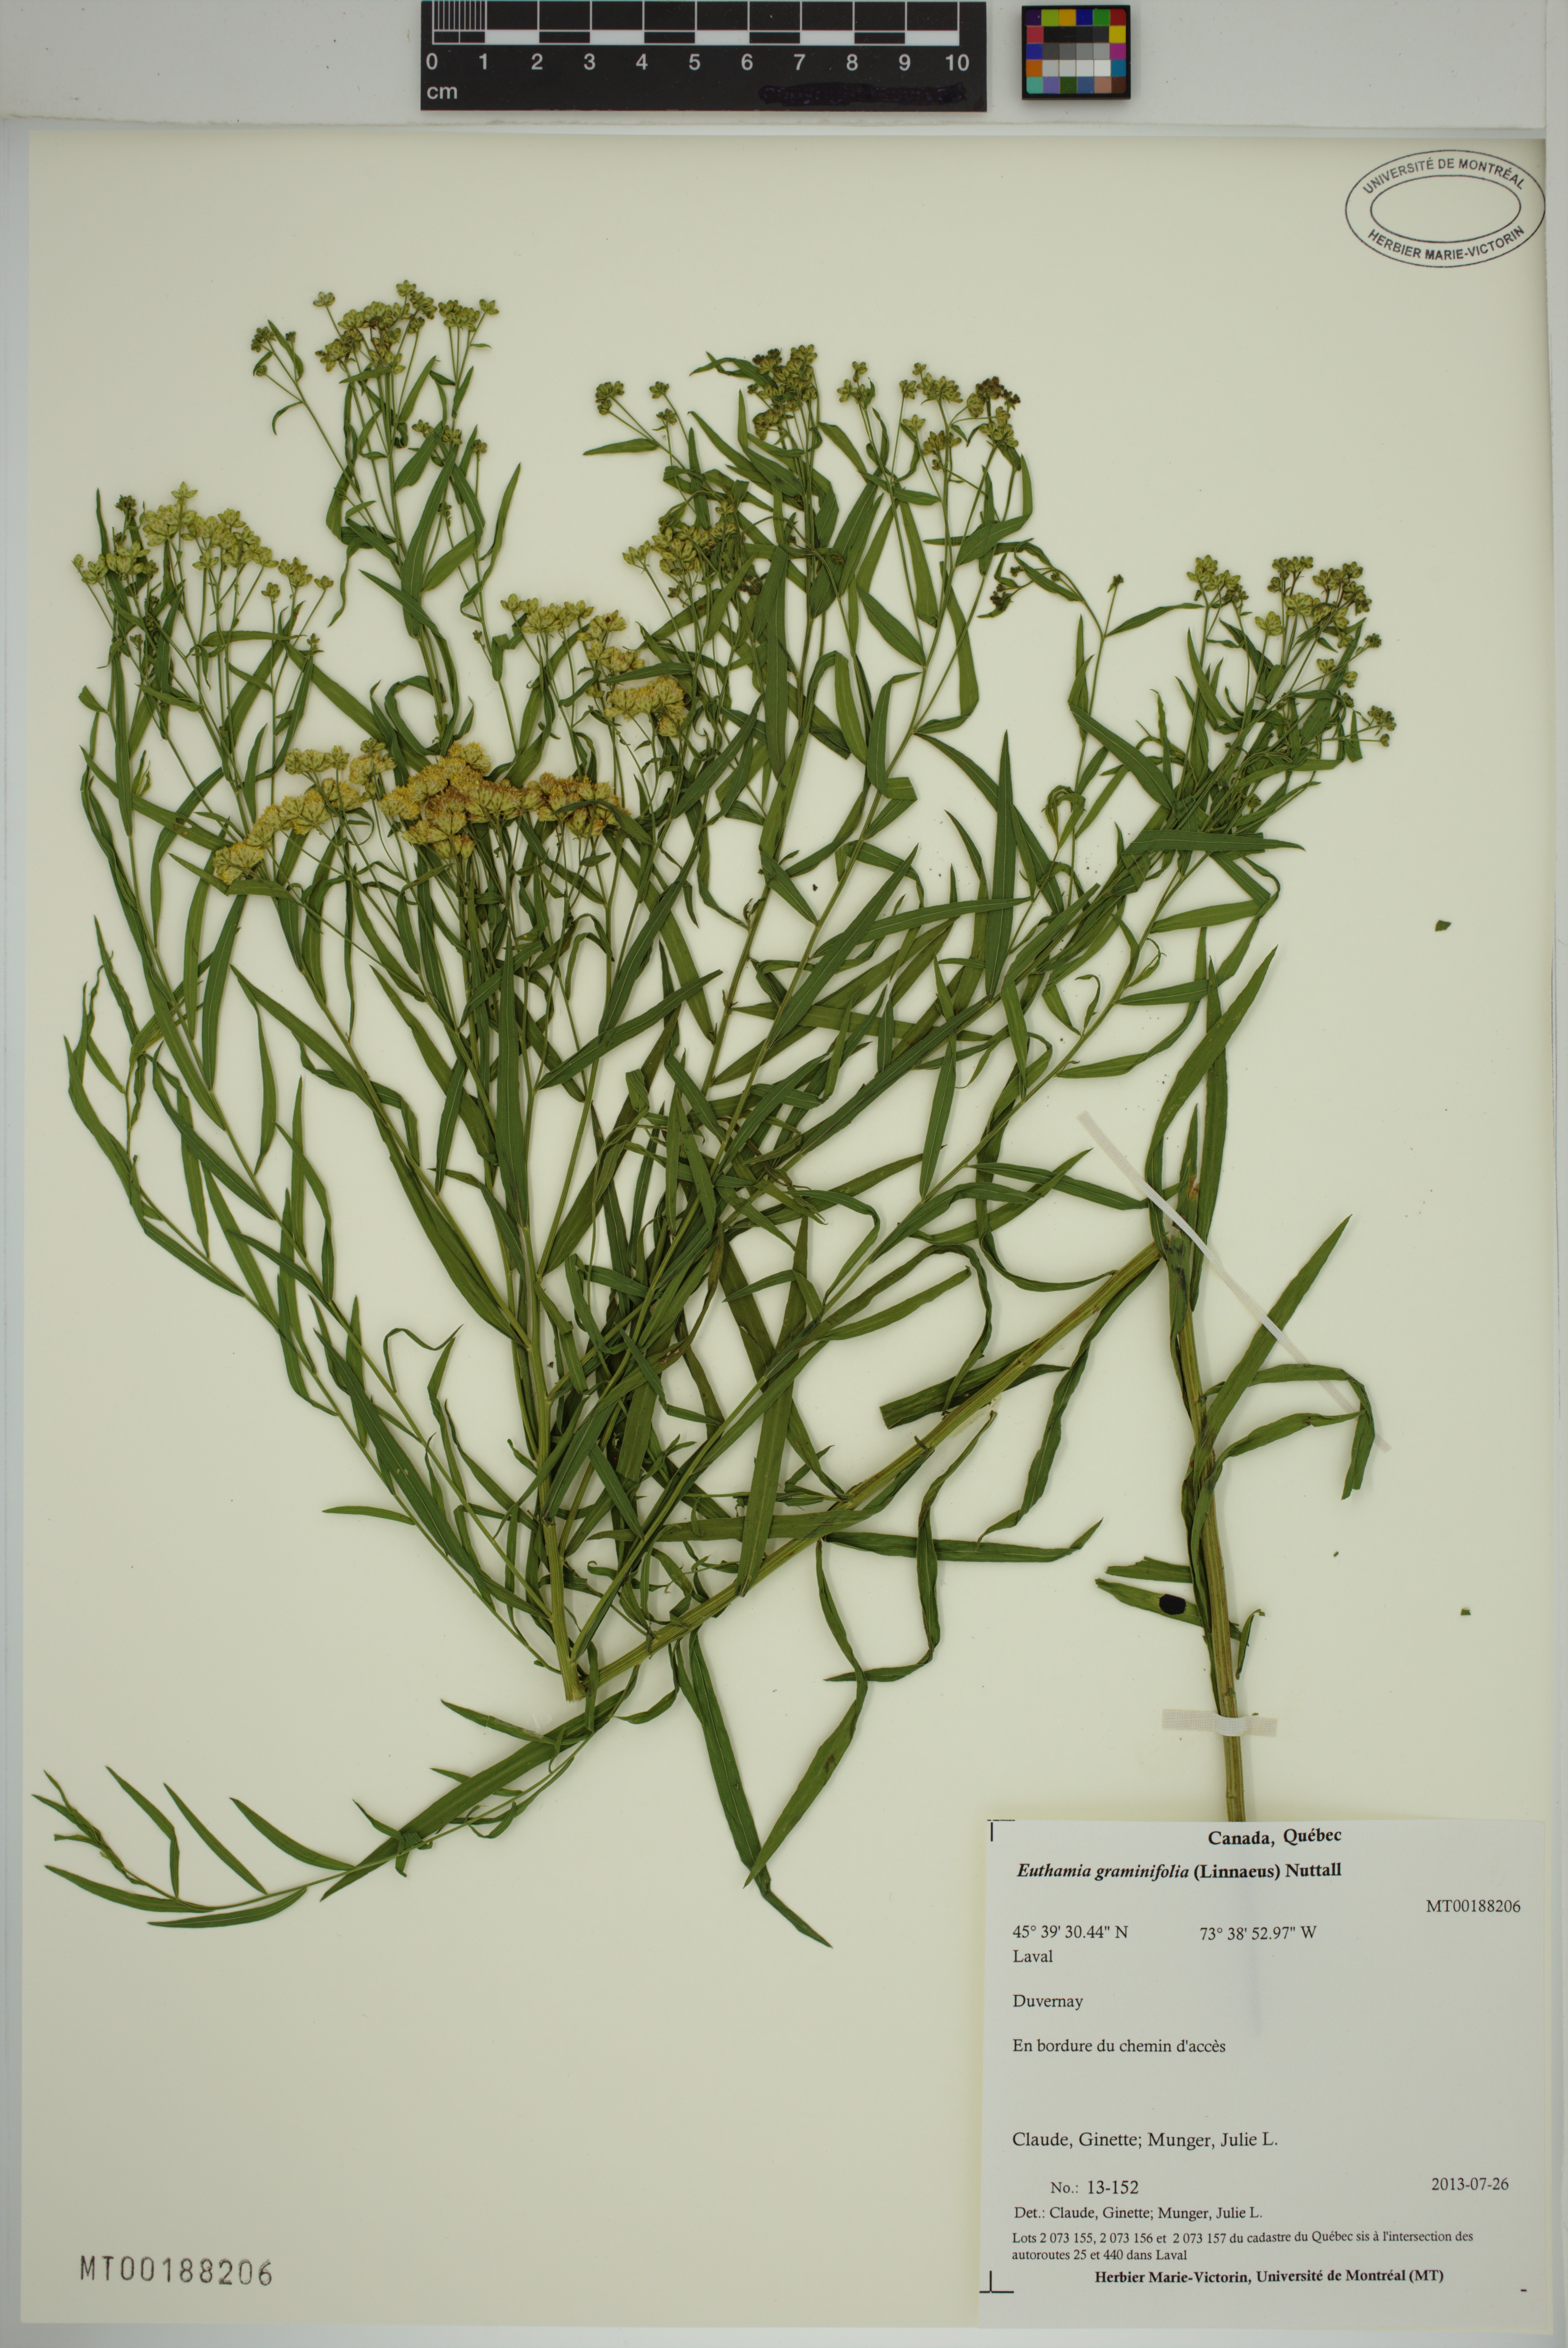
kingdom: Plantae
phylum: Tracheophyta
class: Magnoliopsida
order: Asterales
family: Asteraceae
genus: Euthamia
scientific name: Euthamia graminifolia
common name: Common goldentop
